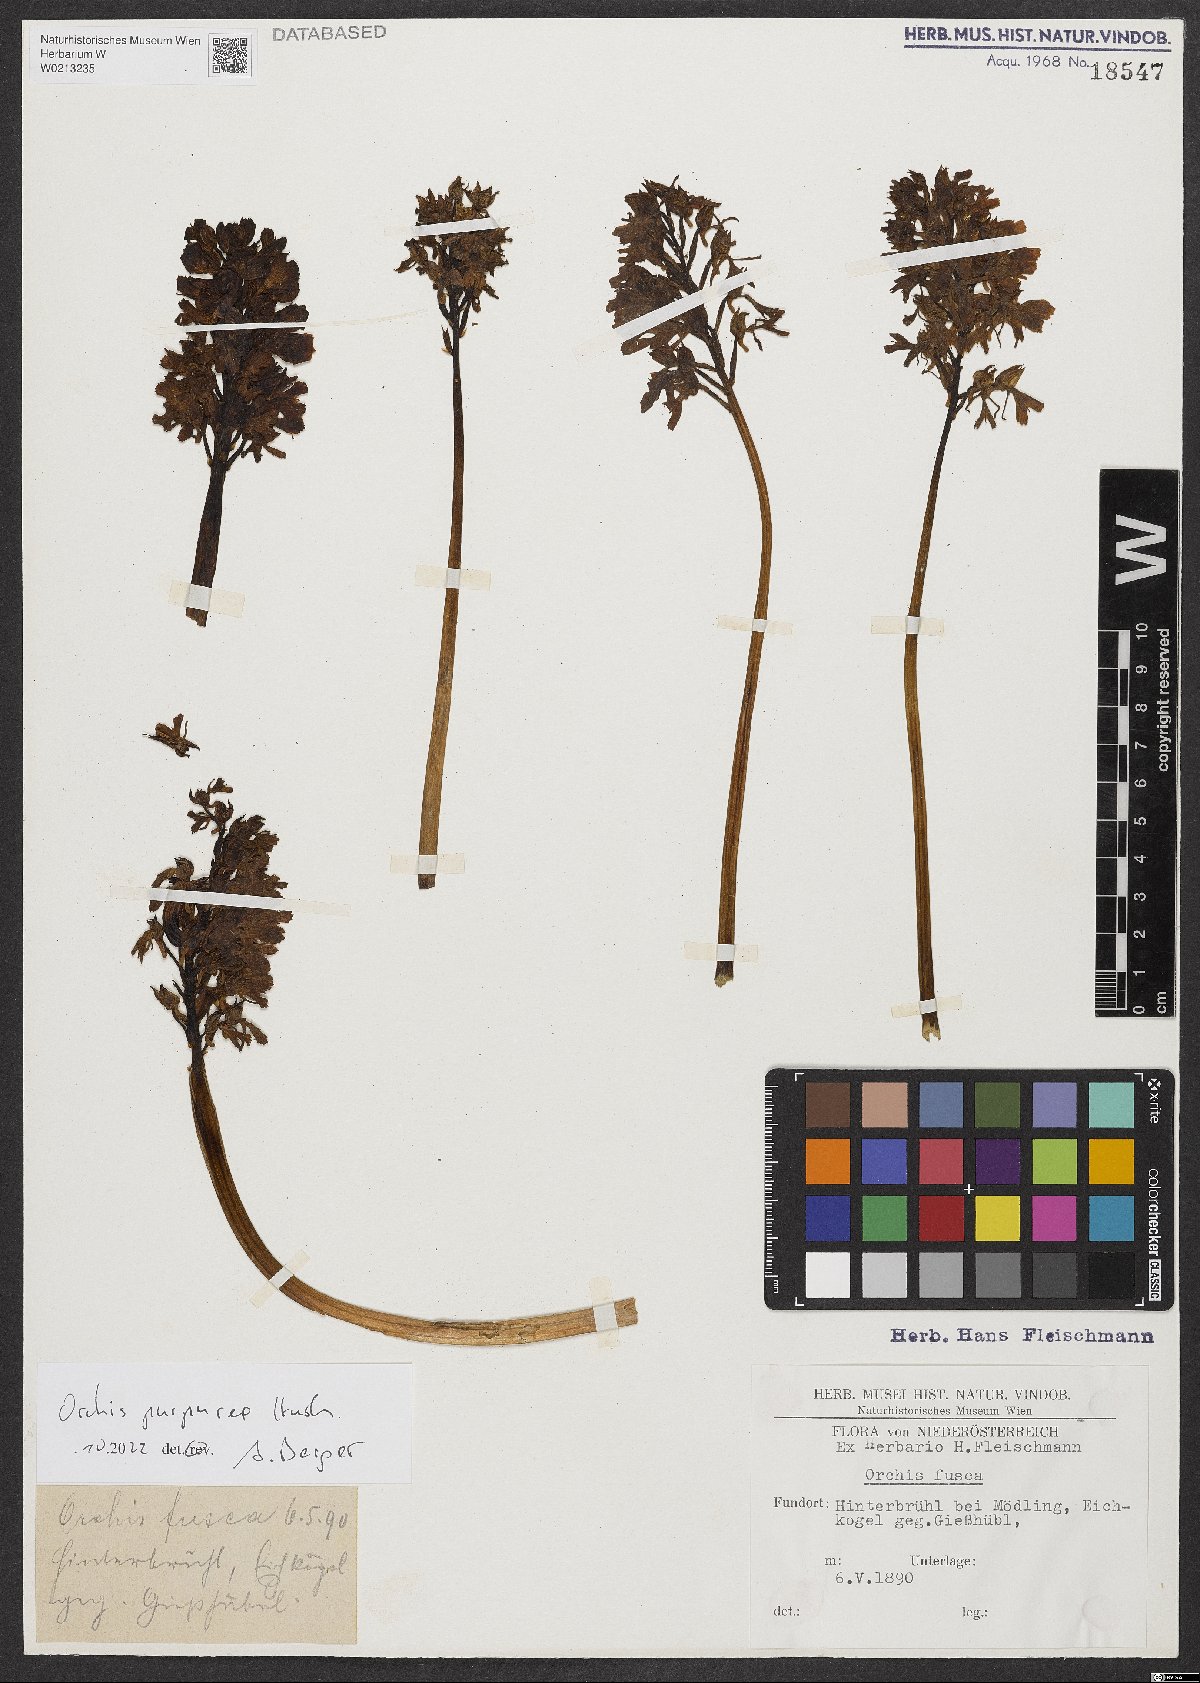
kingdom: Plantae
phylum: Tracheophyta
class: Liliopsida
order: Asparagales
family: Orchidaceae
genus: Orchis
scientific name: Orchis purpurea
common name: Lady orchid
